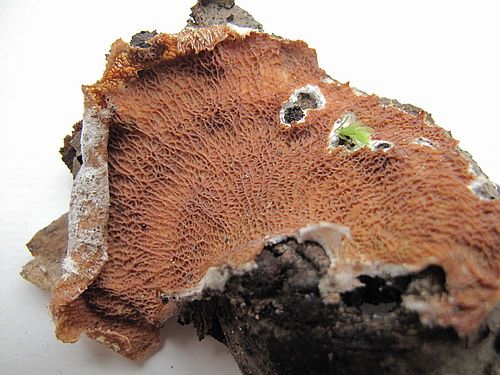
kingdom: Fungi
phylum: Basidiomycota
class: Agaricomycetes
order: Polyporales
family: Meruliaceae
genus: Phlebia
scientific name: Phlebia tremellosa
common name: bævrende åresvamp
